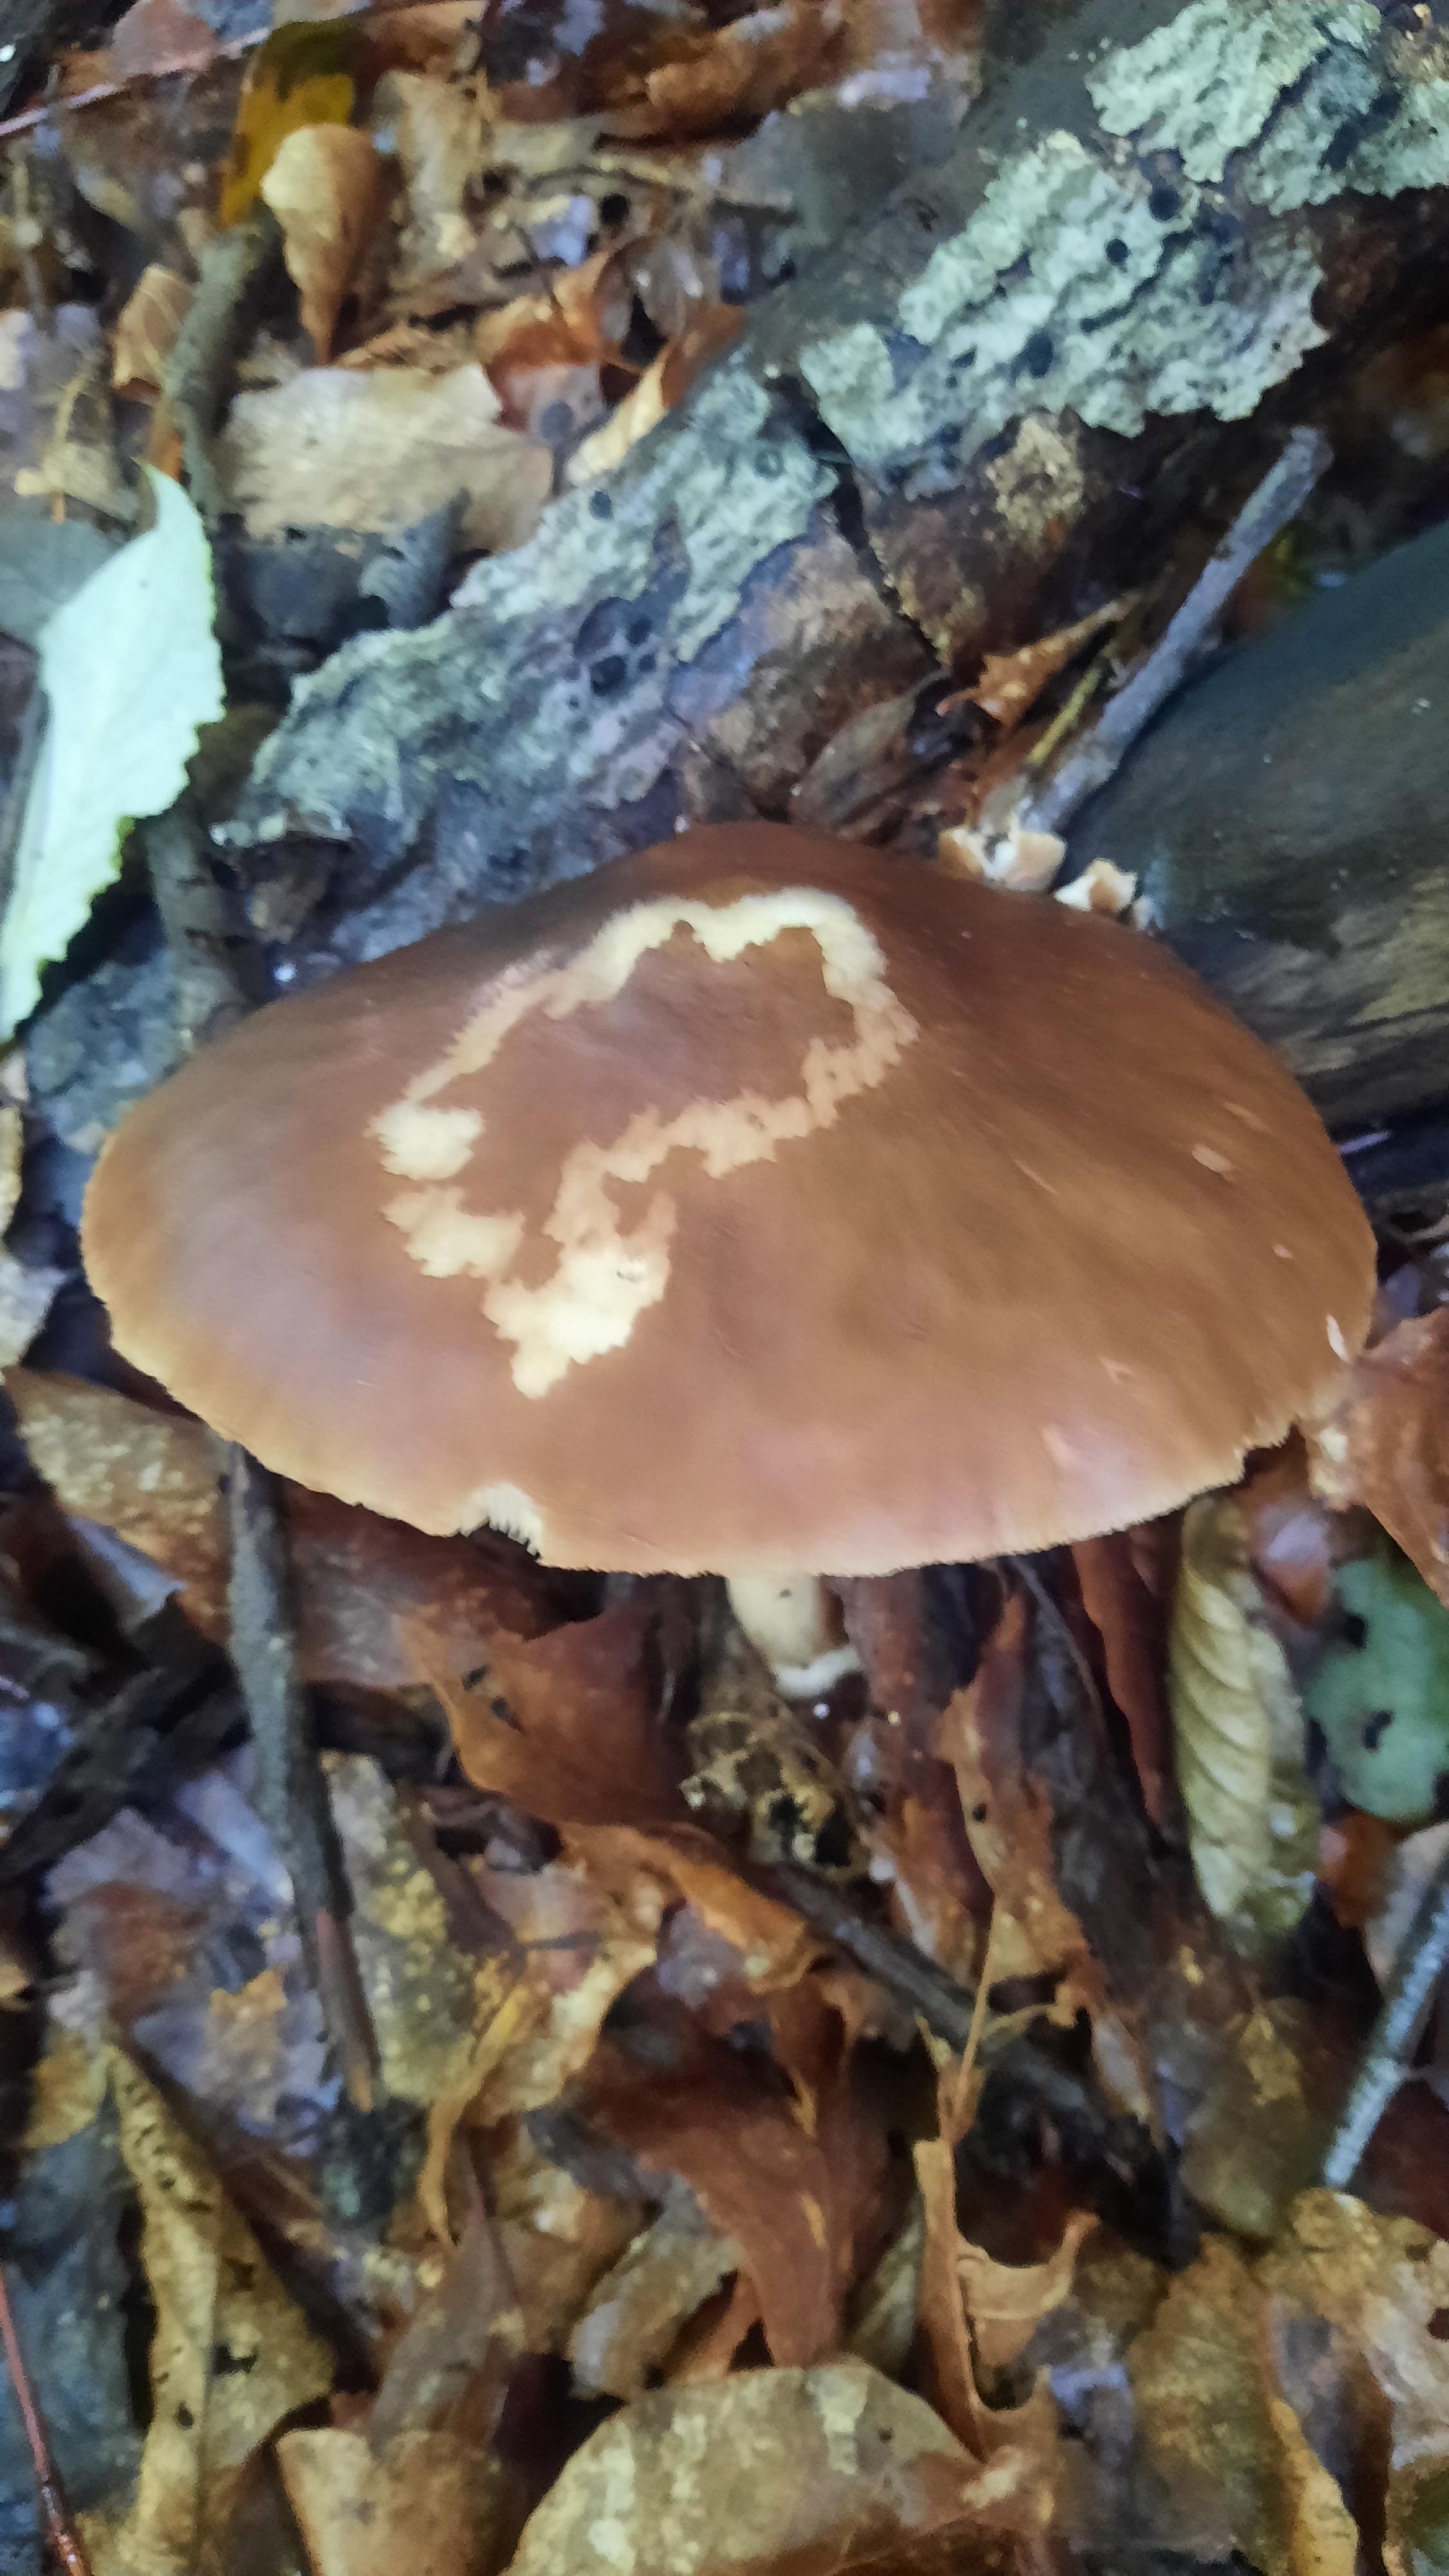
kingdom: Fungi
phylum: Basidiomycota
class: Agaricomycetes
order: Agaricales
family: Pluteaceae
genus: Pluteus
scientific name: Pluteus cervinus
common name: sodfarvet skærmhat
